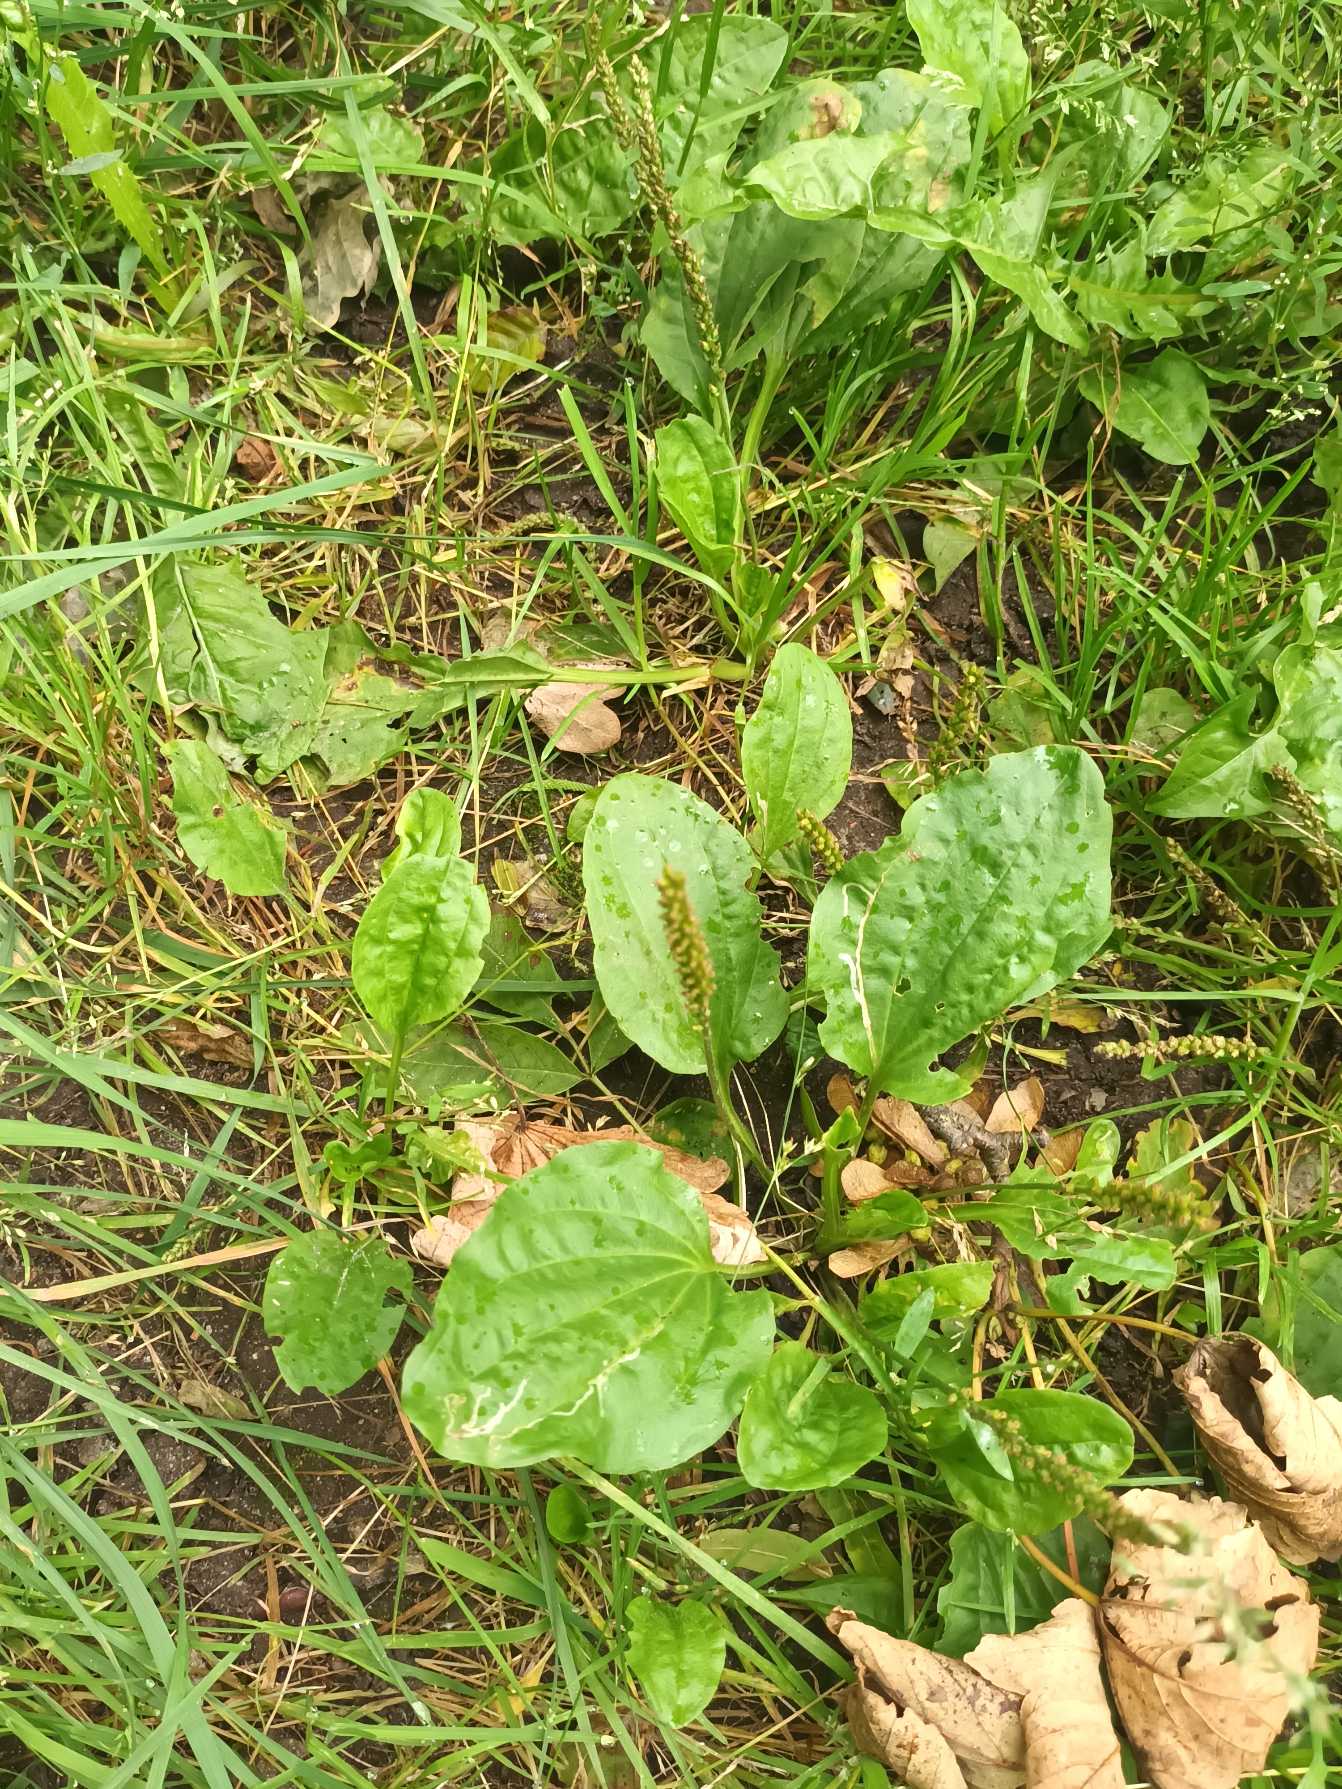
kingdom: Plantae
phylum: Tracheophyta
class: Magnoliopsida
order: Lamiales
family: Plantaginaceae
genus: Plantago
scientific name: Plantago major
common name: Glat vejbred
